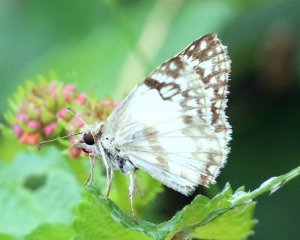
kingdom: Animalia
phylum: Arthropoda
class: Insecta
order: Lepidoptera
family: Hesperiidae
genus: Heliopetes
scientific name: Heliopetes sublinea
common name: East-Mexican White-Skipper
